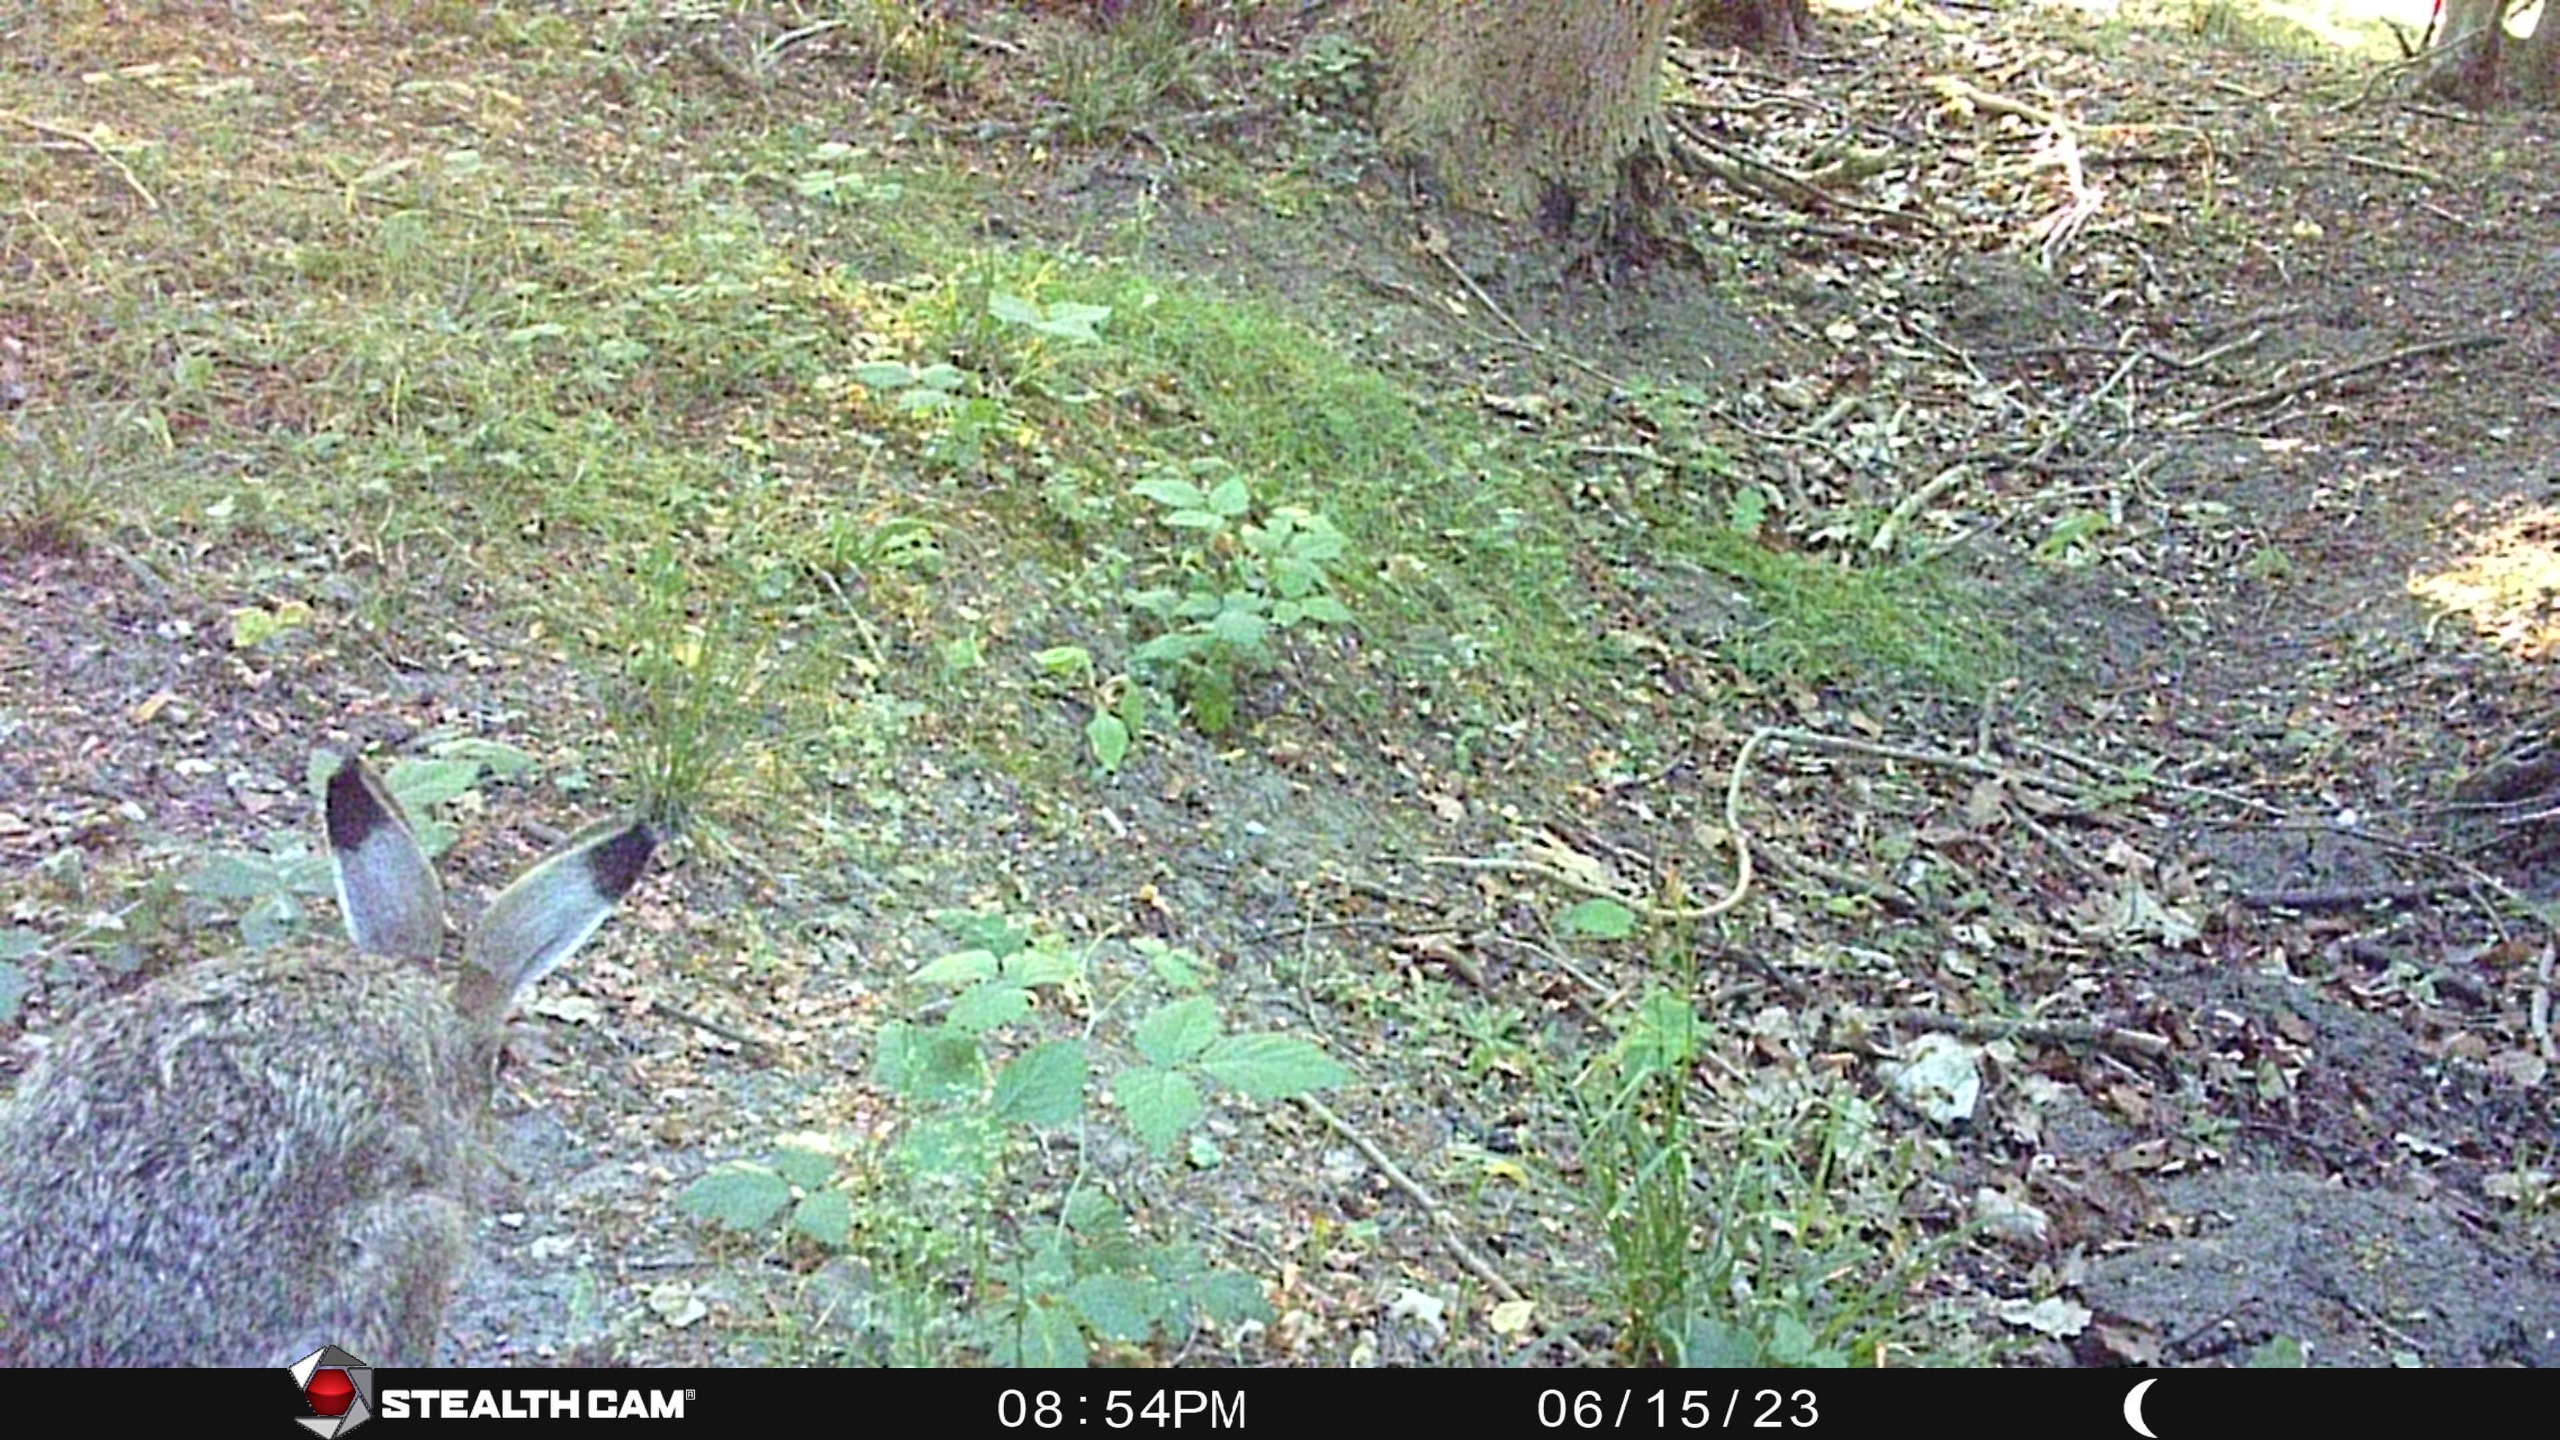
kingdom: Animalia
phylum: Chordata
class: Mammalia
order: Lagomorpha
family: Leporidae
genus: Lepus
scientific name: Lepus europaeus
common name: Hare
